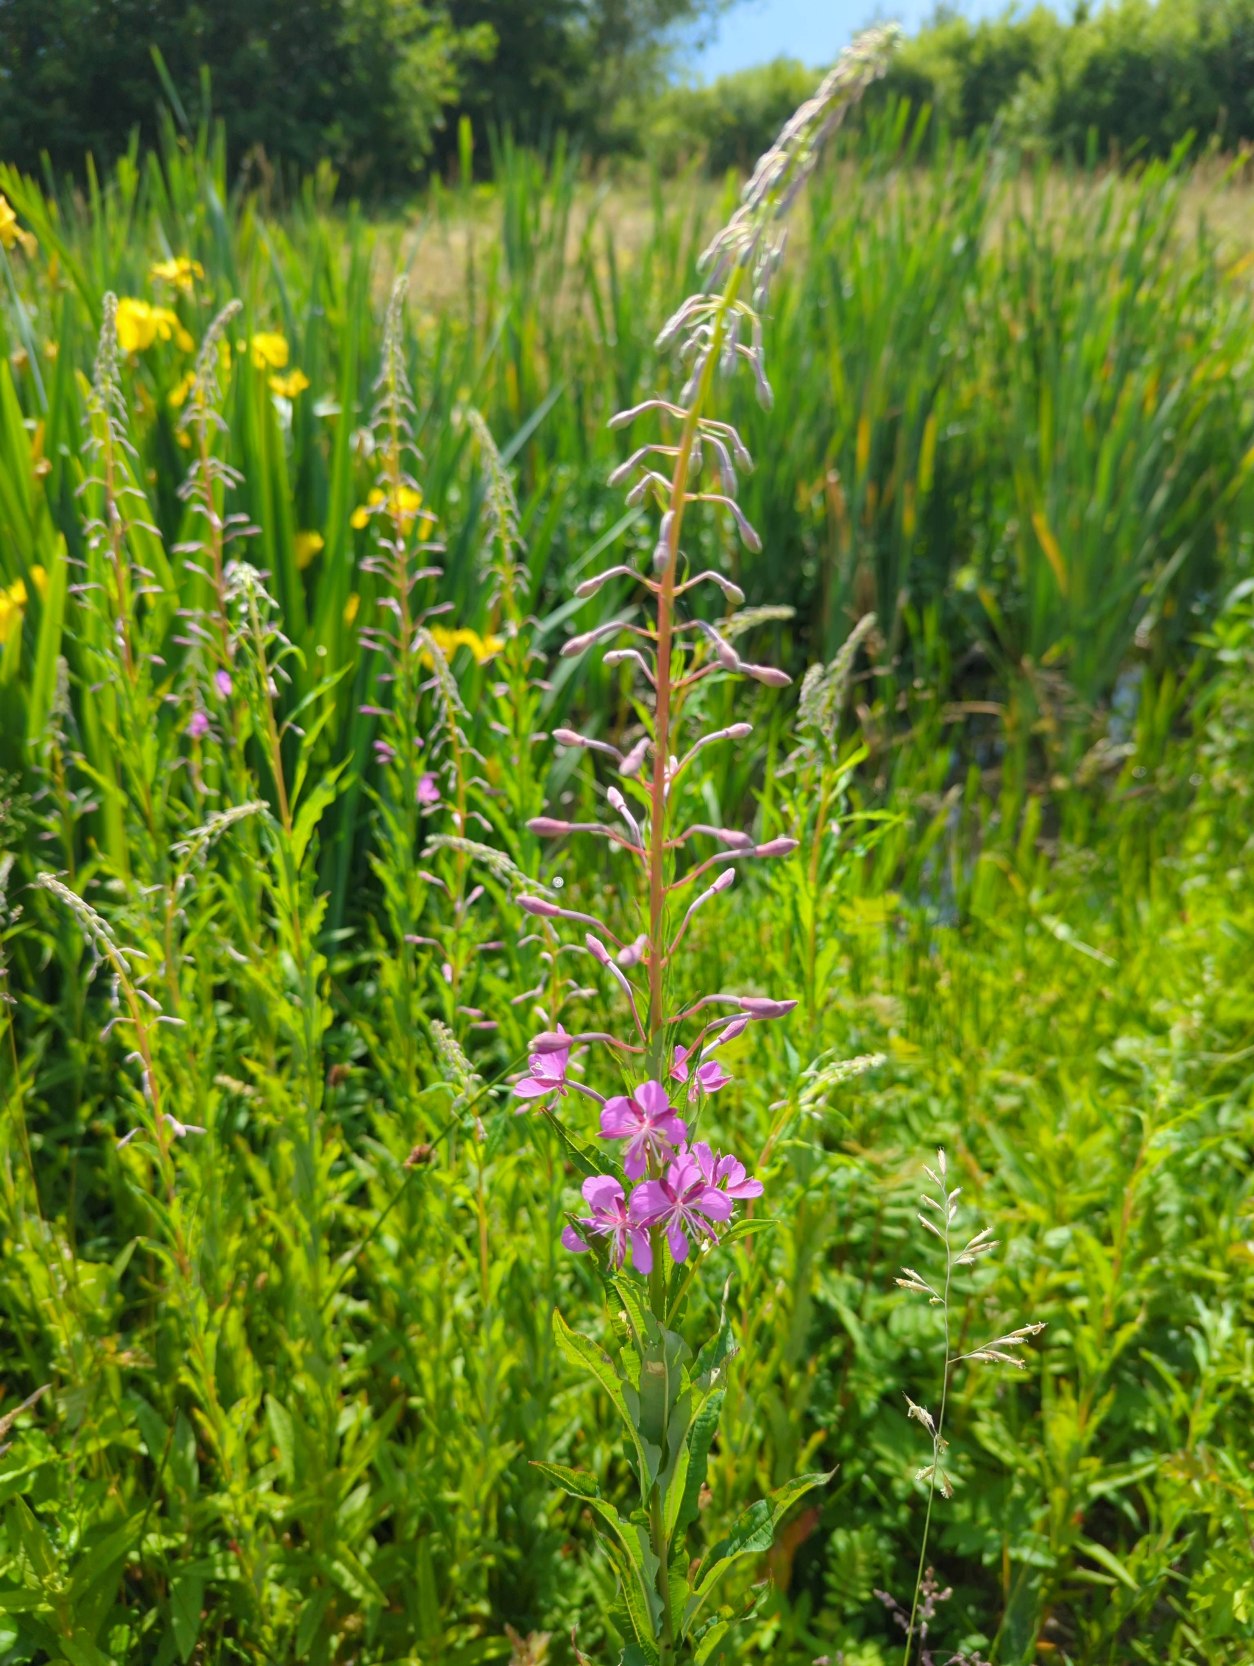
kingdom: Plantae
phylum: Tracheophyta
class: Magnoliopsida
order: Myrtales
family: Onagraceae
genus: Chamaenerion
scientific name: Chamaenerion angustifolium
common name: Gederams
